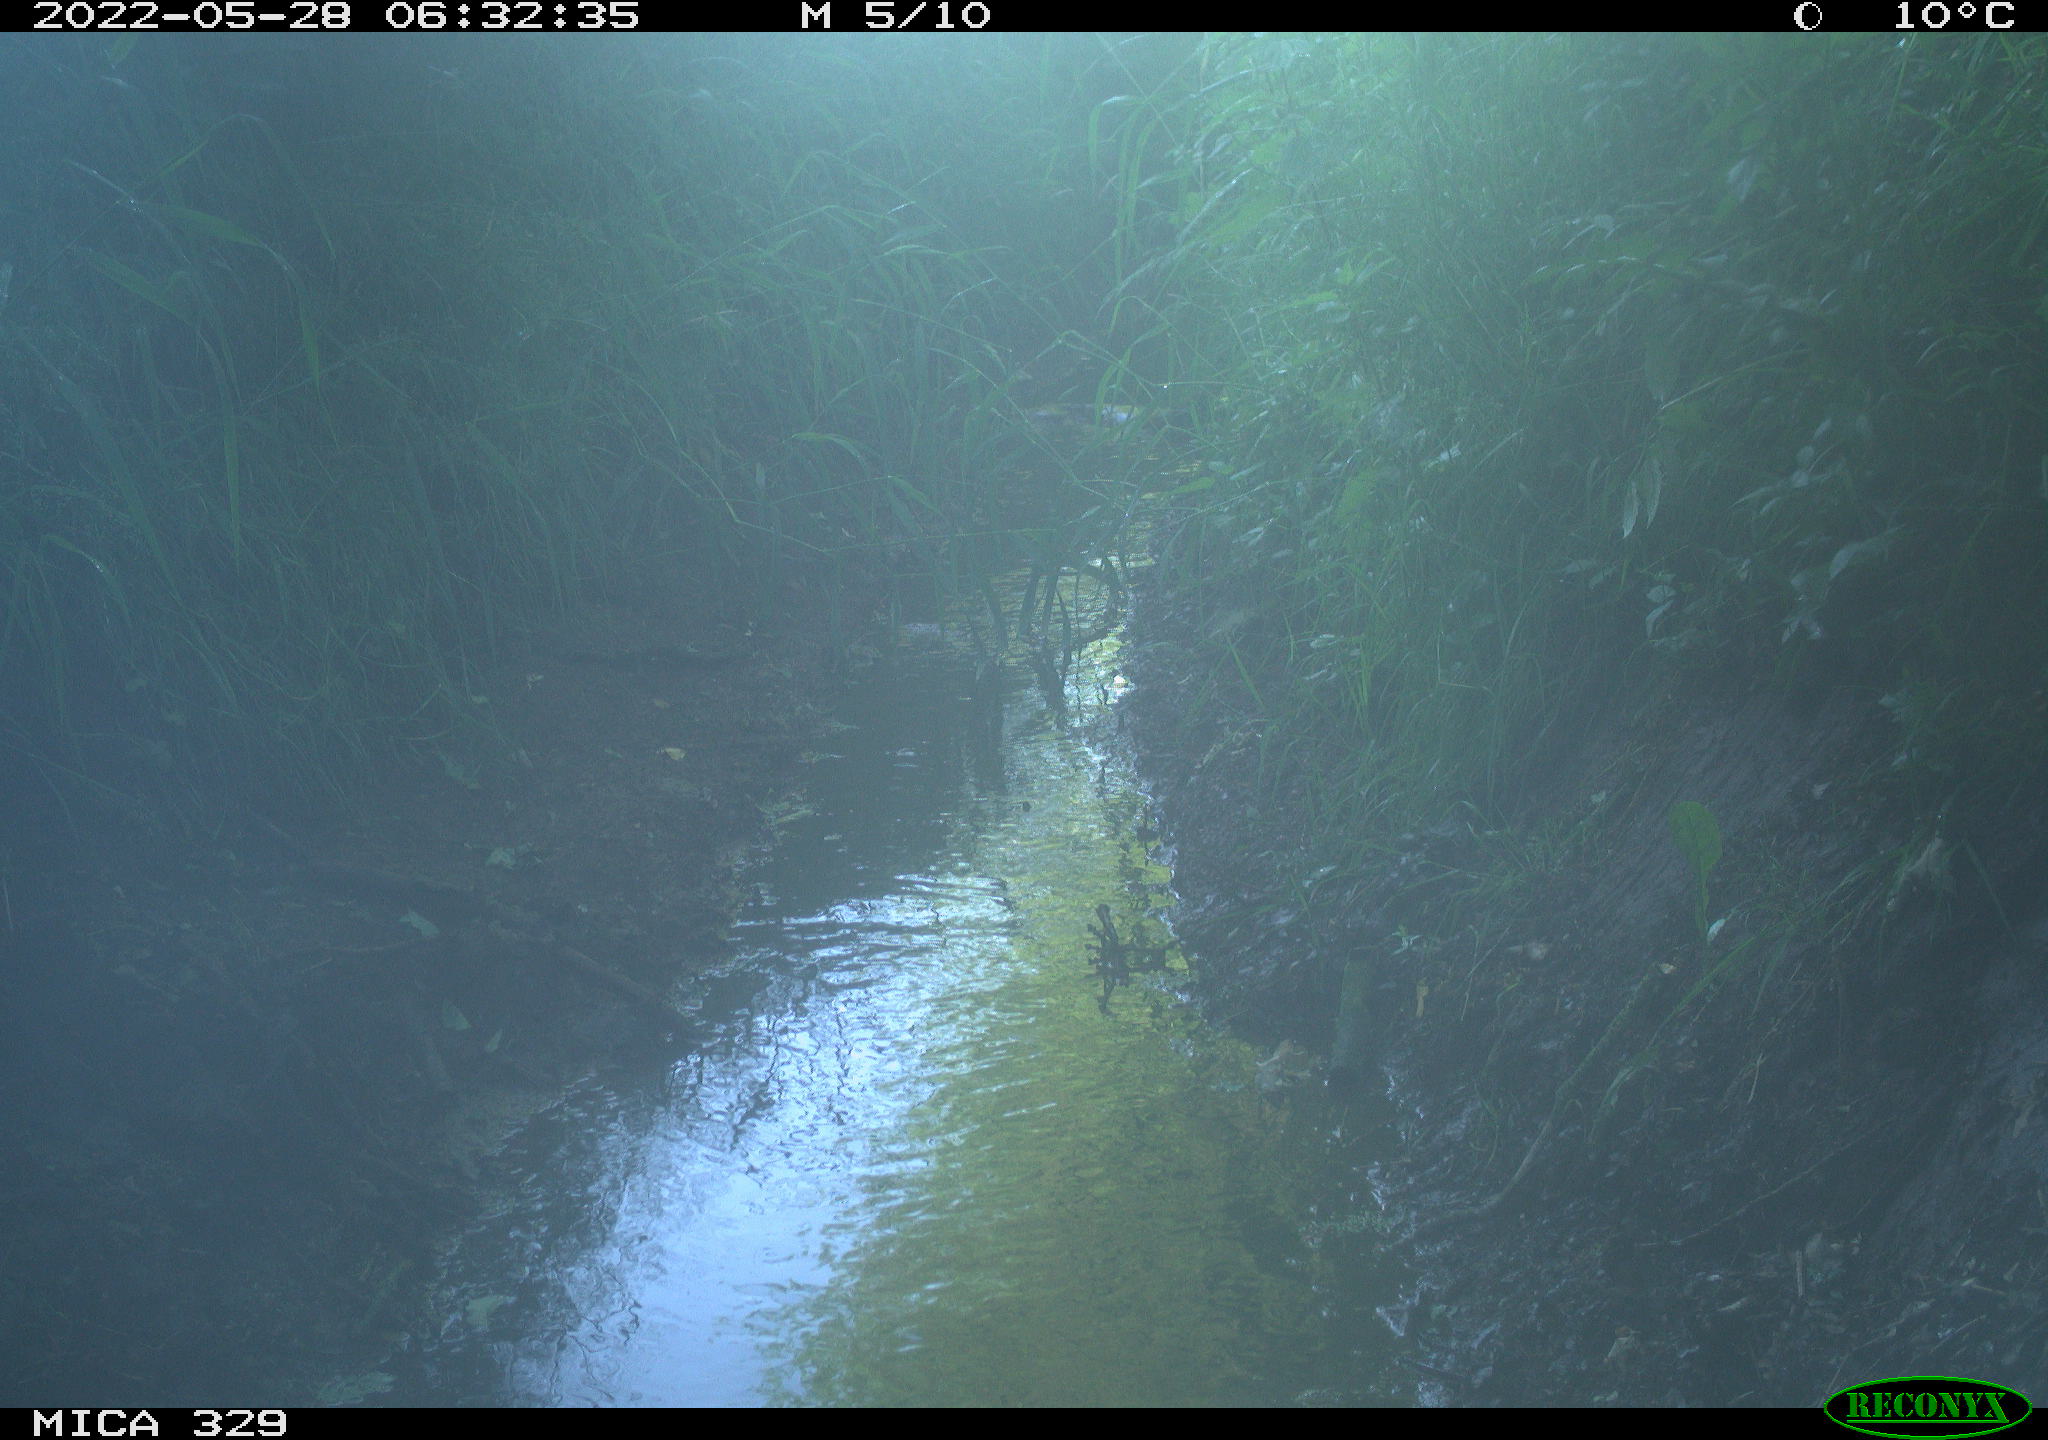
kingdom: Animalia
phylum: Chordata
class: Aves
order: Galliformes
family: Phasianidae
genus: Phasianus
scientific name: Phasianus colchicus
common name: Common pheasant
